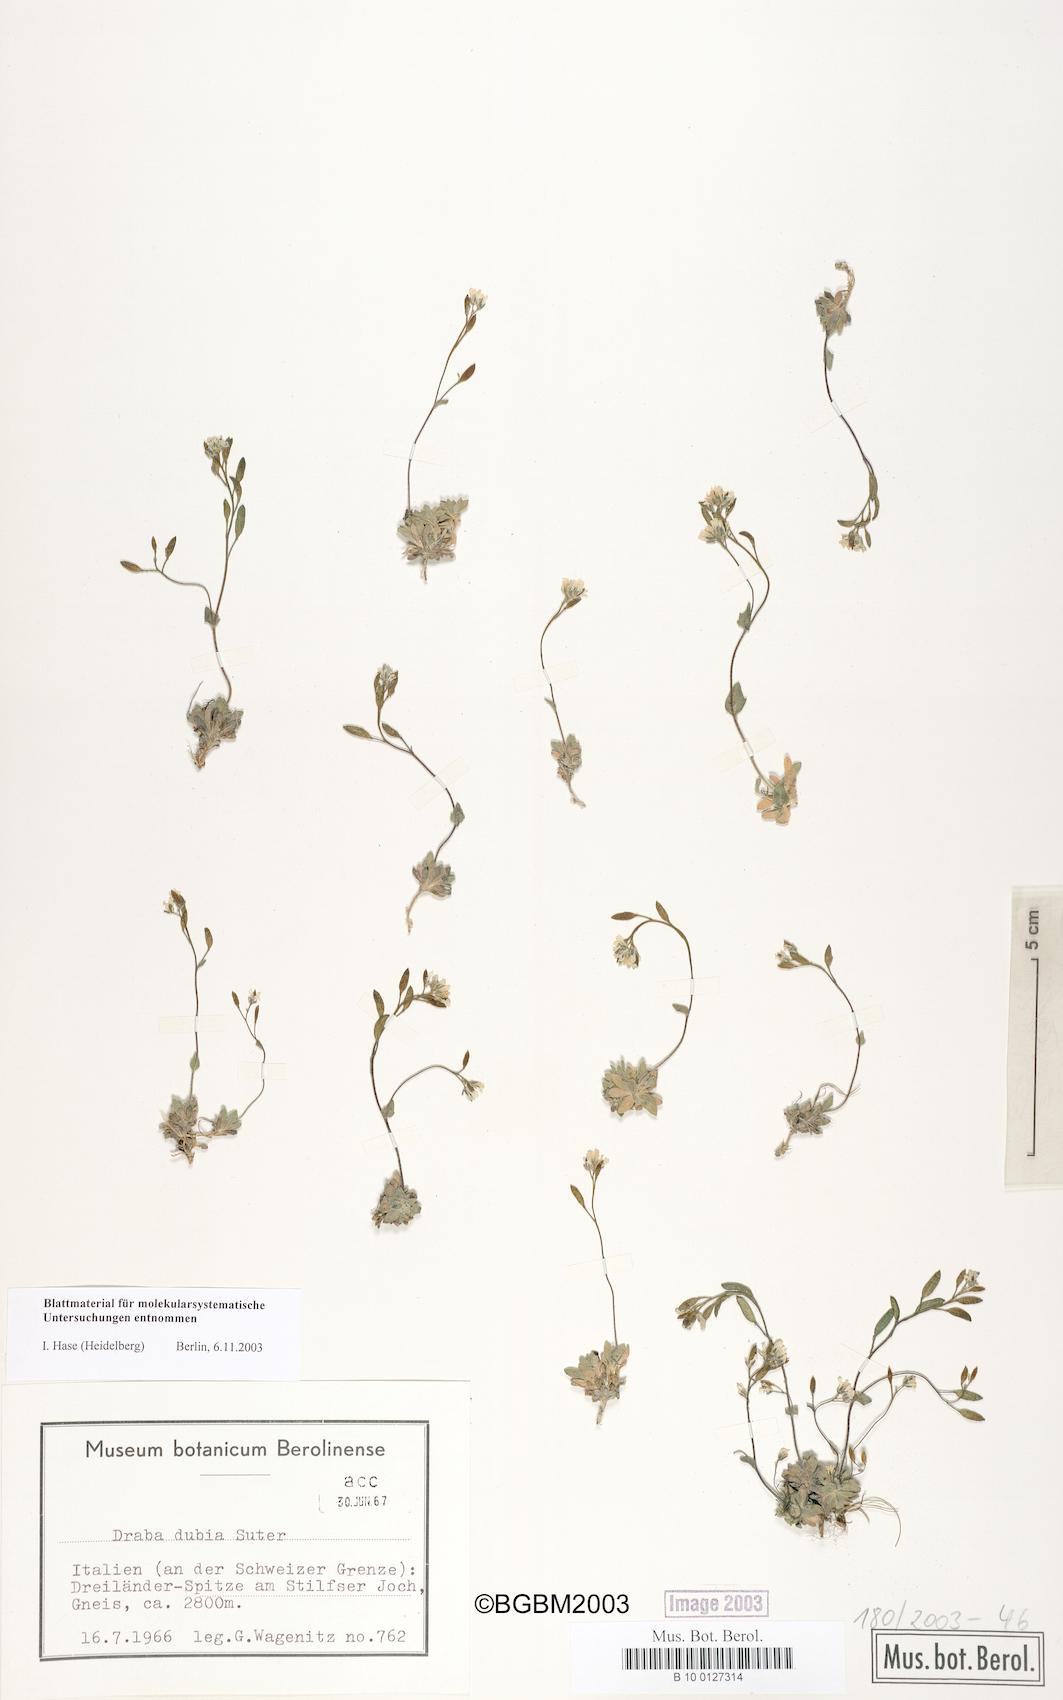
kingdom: Plantae
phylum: Tracheophyta
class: Magnoliopsida
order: Brassicales
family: Brassicaceae
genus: Draba
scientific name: Draba dubia
